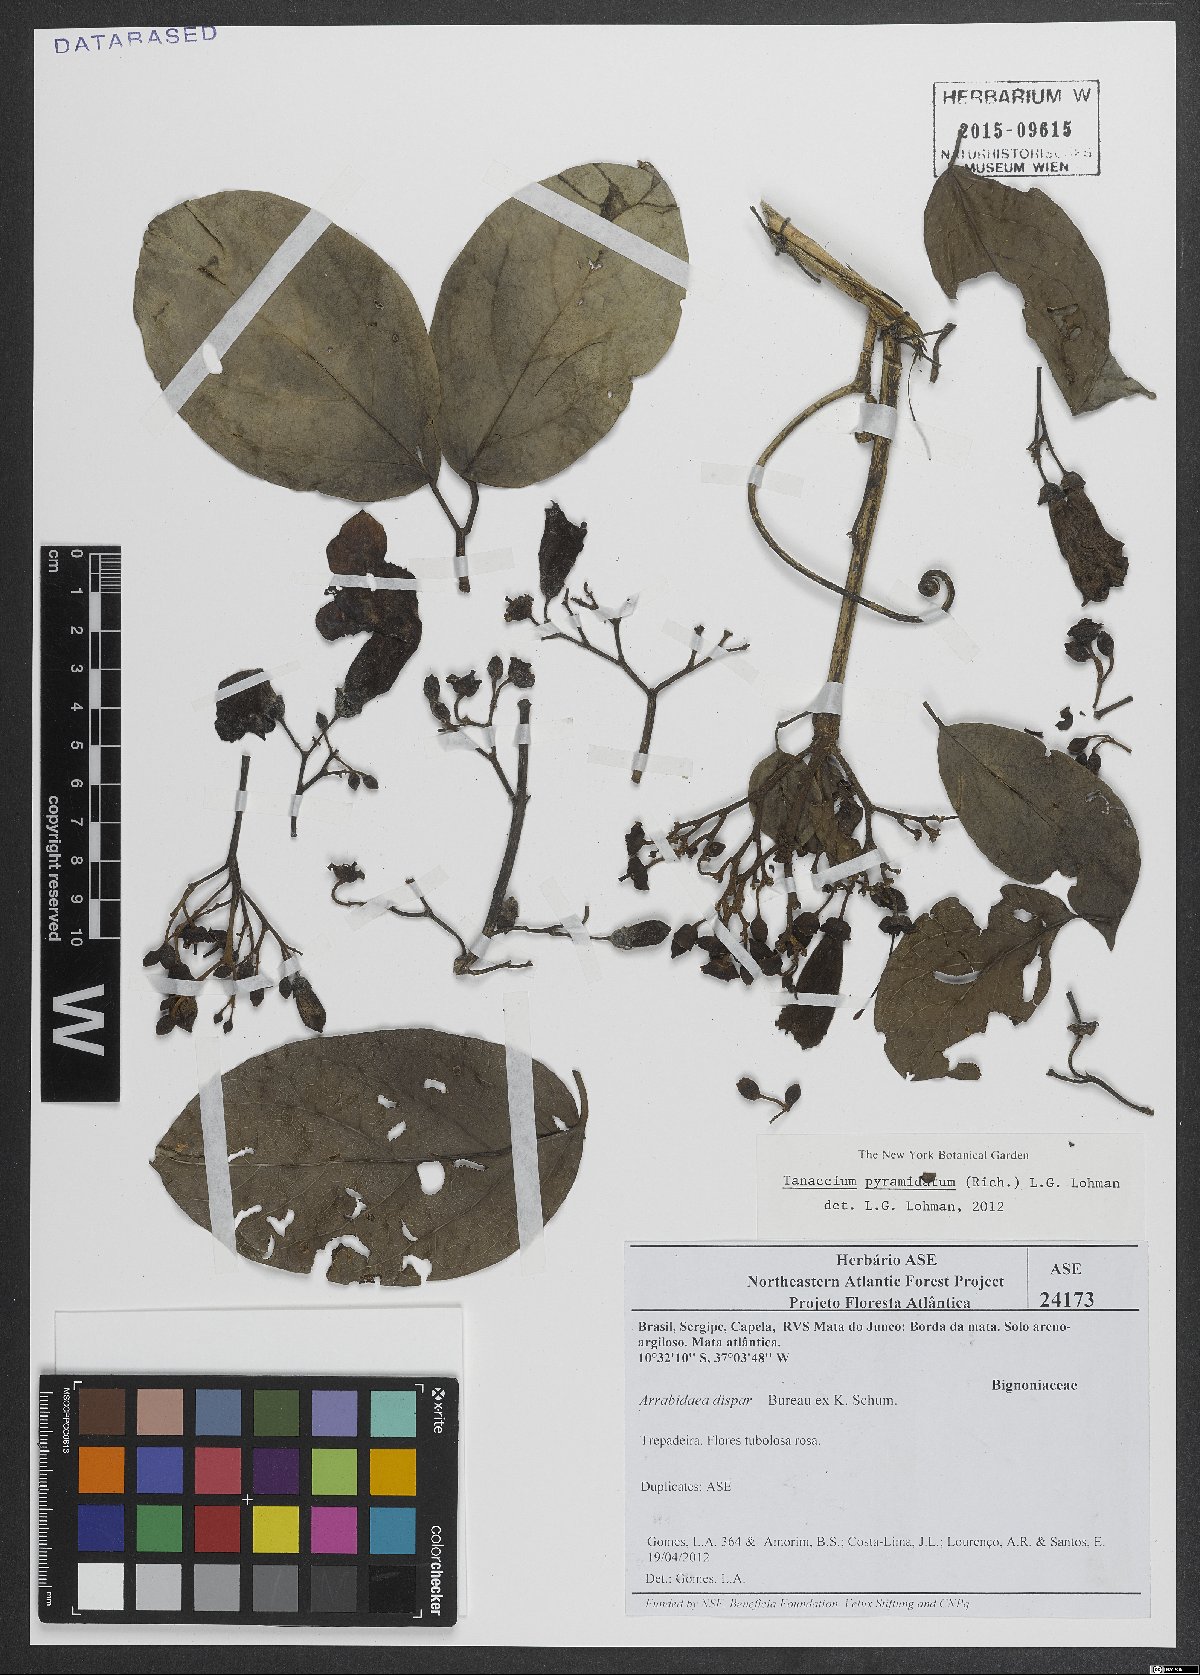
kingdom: Plantae
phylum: Tracheophyta
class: Magnoliopsida
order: Lamiales
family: Bignoniaceae
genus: Tanaecium
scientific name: Tanaecium pyramidatum
